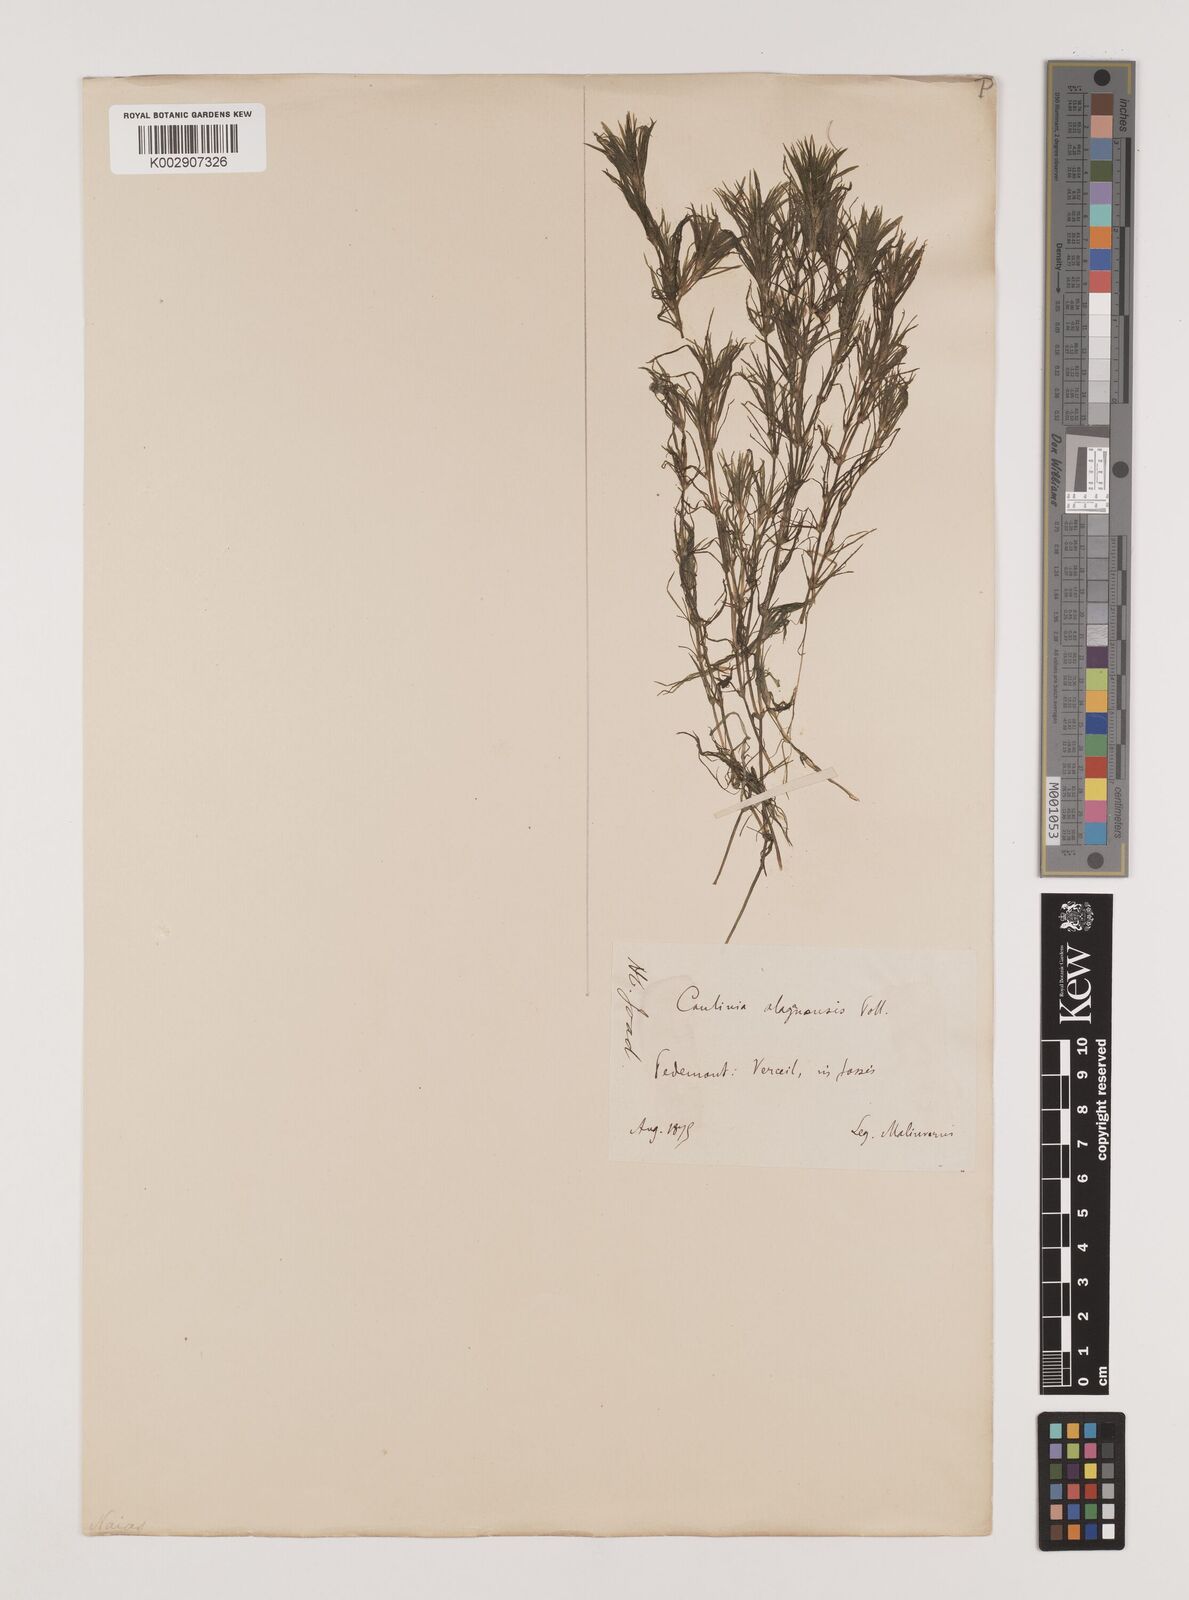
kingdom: Plantae
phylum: Tracheophyta
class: Liliopsida
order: Alismatales
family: Hydrocharitaceae
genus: Najas
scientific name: Najas graminea
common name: Ricefield waternymph
